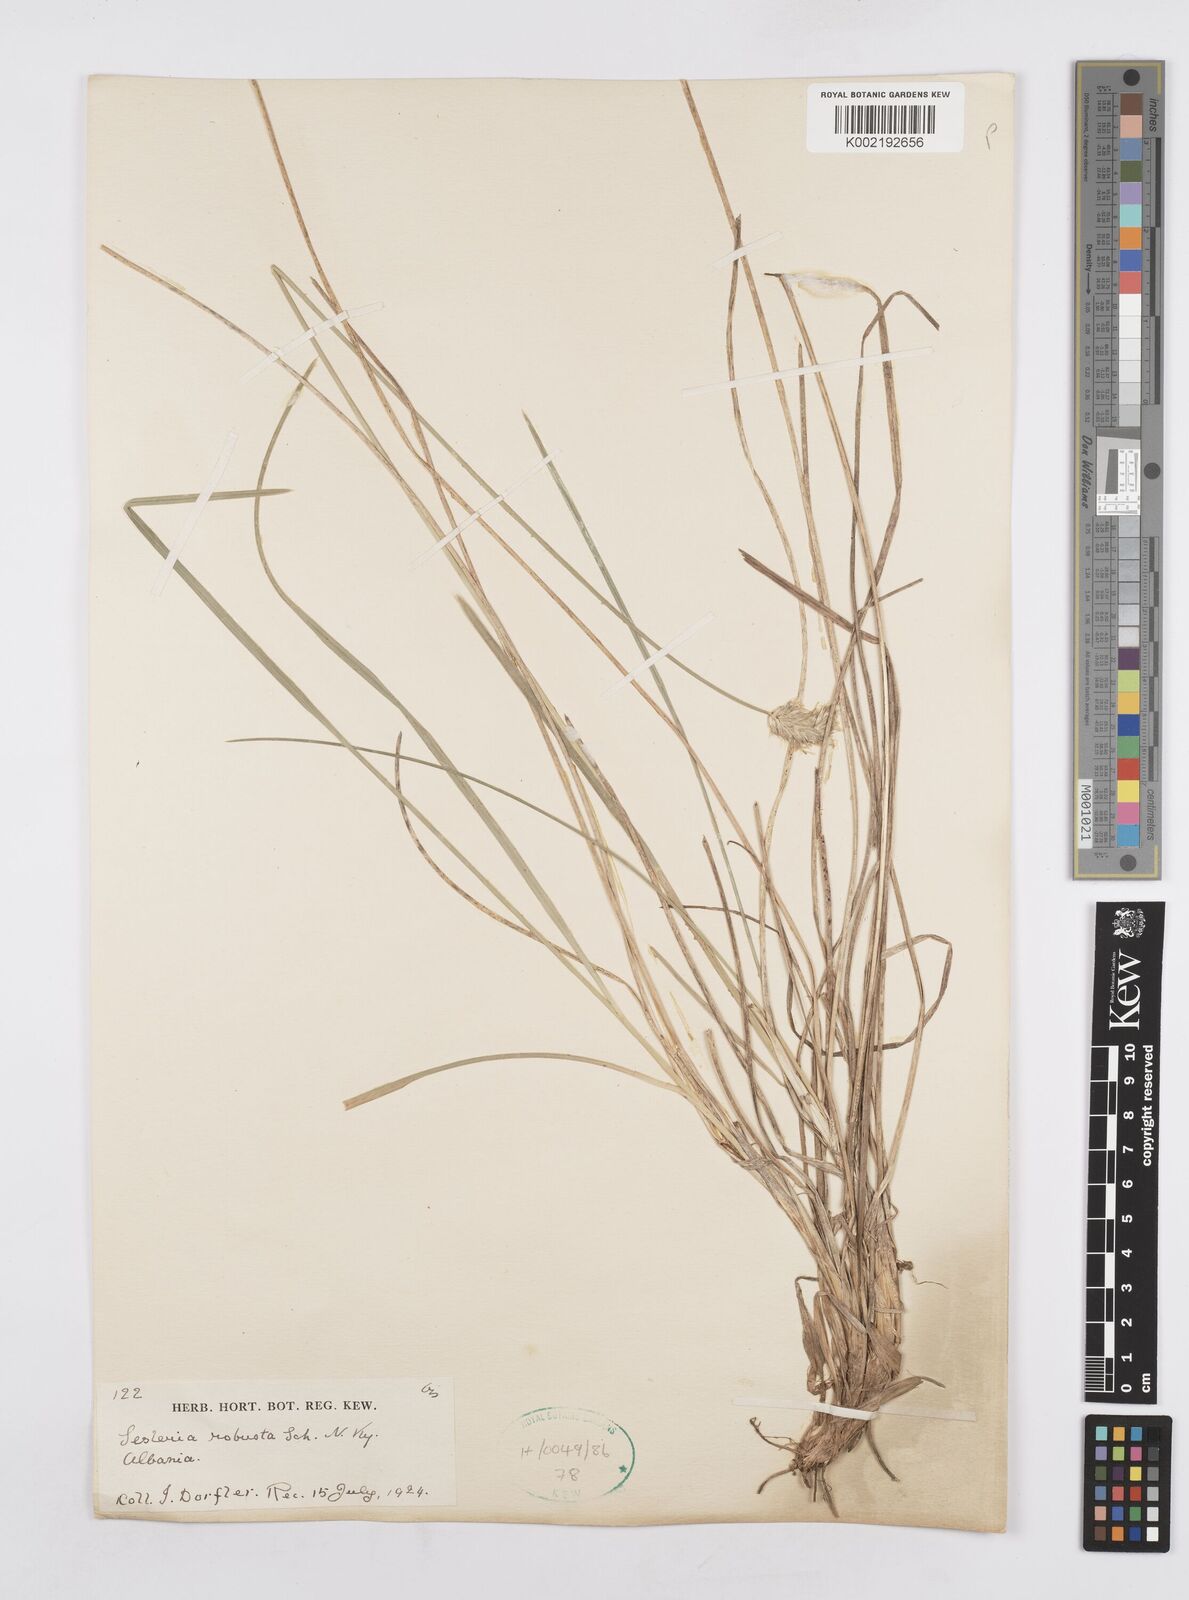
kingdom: Plantae
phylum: Tracheophyta
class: Liliopsida
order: Poales
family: Poaceae
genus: Sesleria
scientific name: Sesleria robusta
